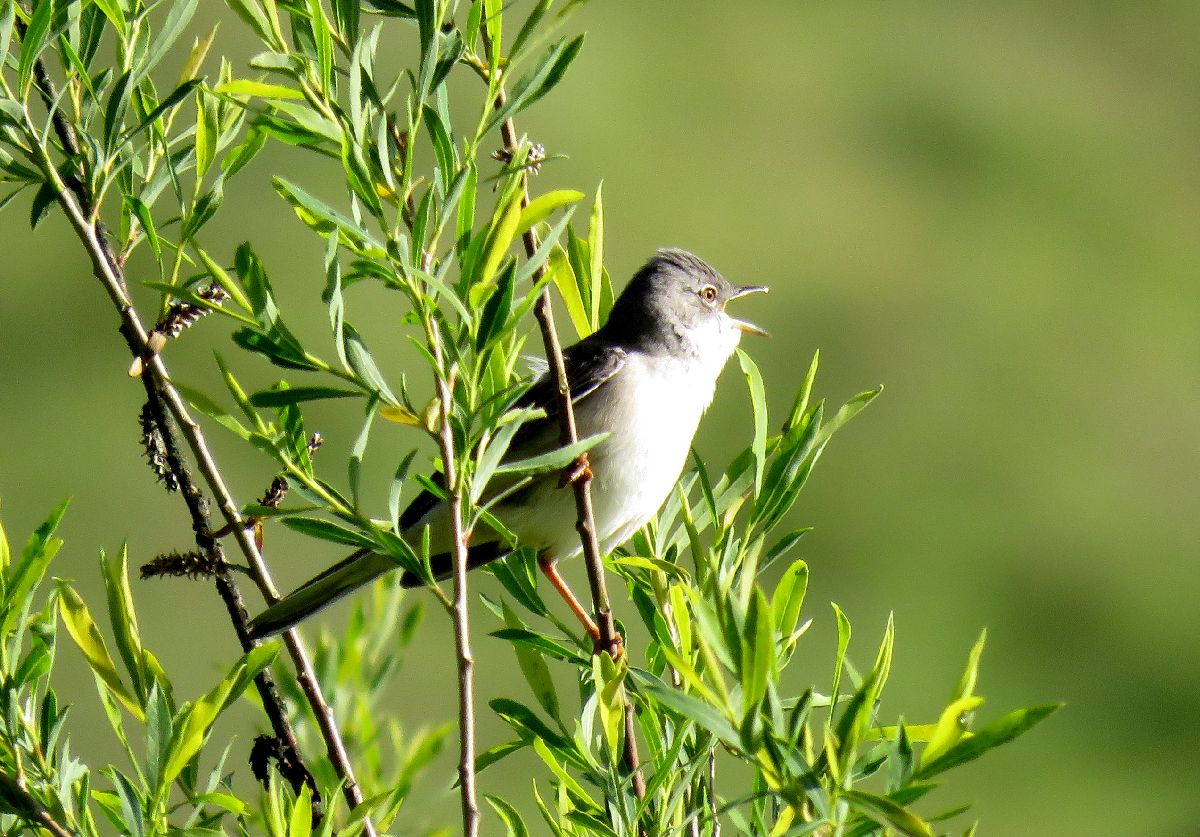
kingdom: Animalia
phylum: Chordata
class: Aves
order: Passeriformes
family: Sylviidae
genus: Sylvia
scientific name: Sylvia communis
